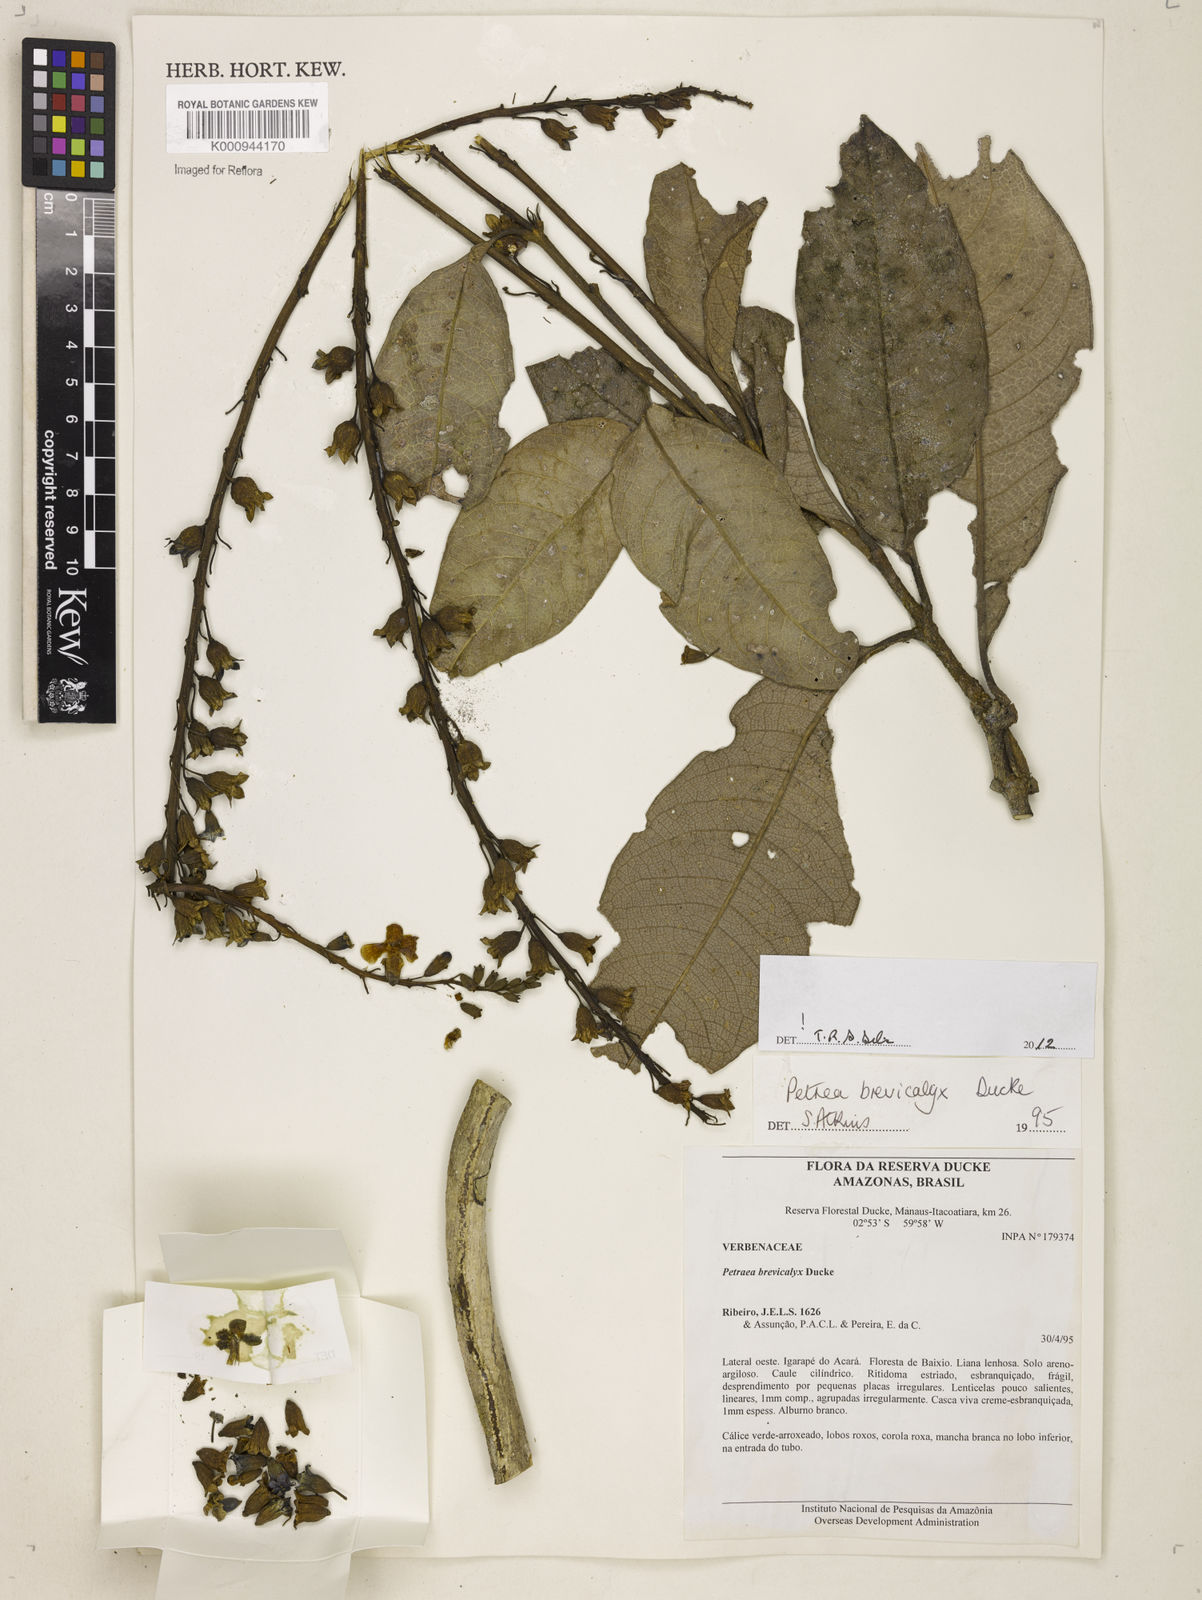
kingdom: Plantae
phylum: Tracheophyta
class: Magnoliopsida
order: Lamiales
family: Verbenaceae
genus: Petrea
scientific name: Petrea brevicalyx
